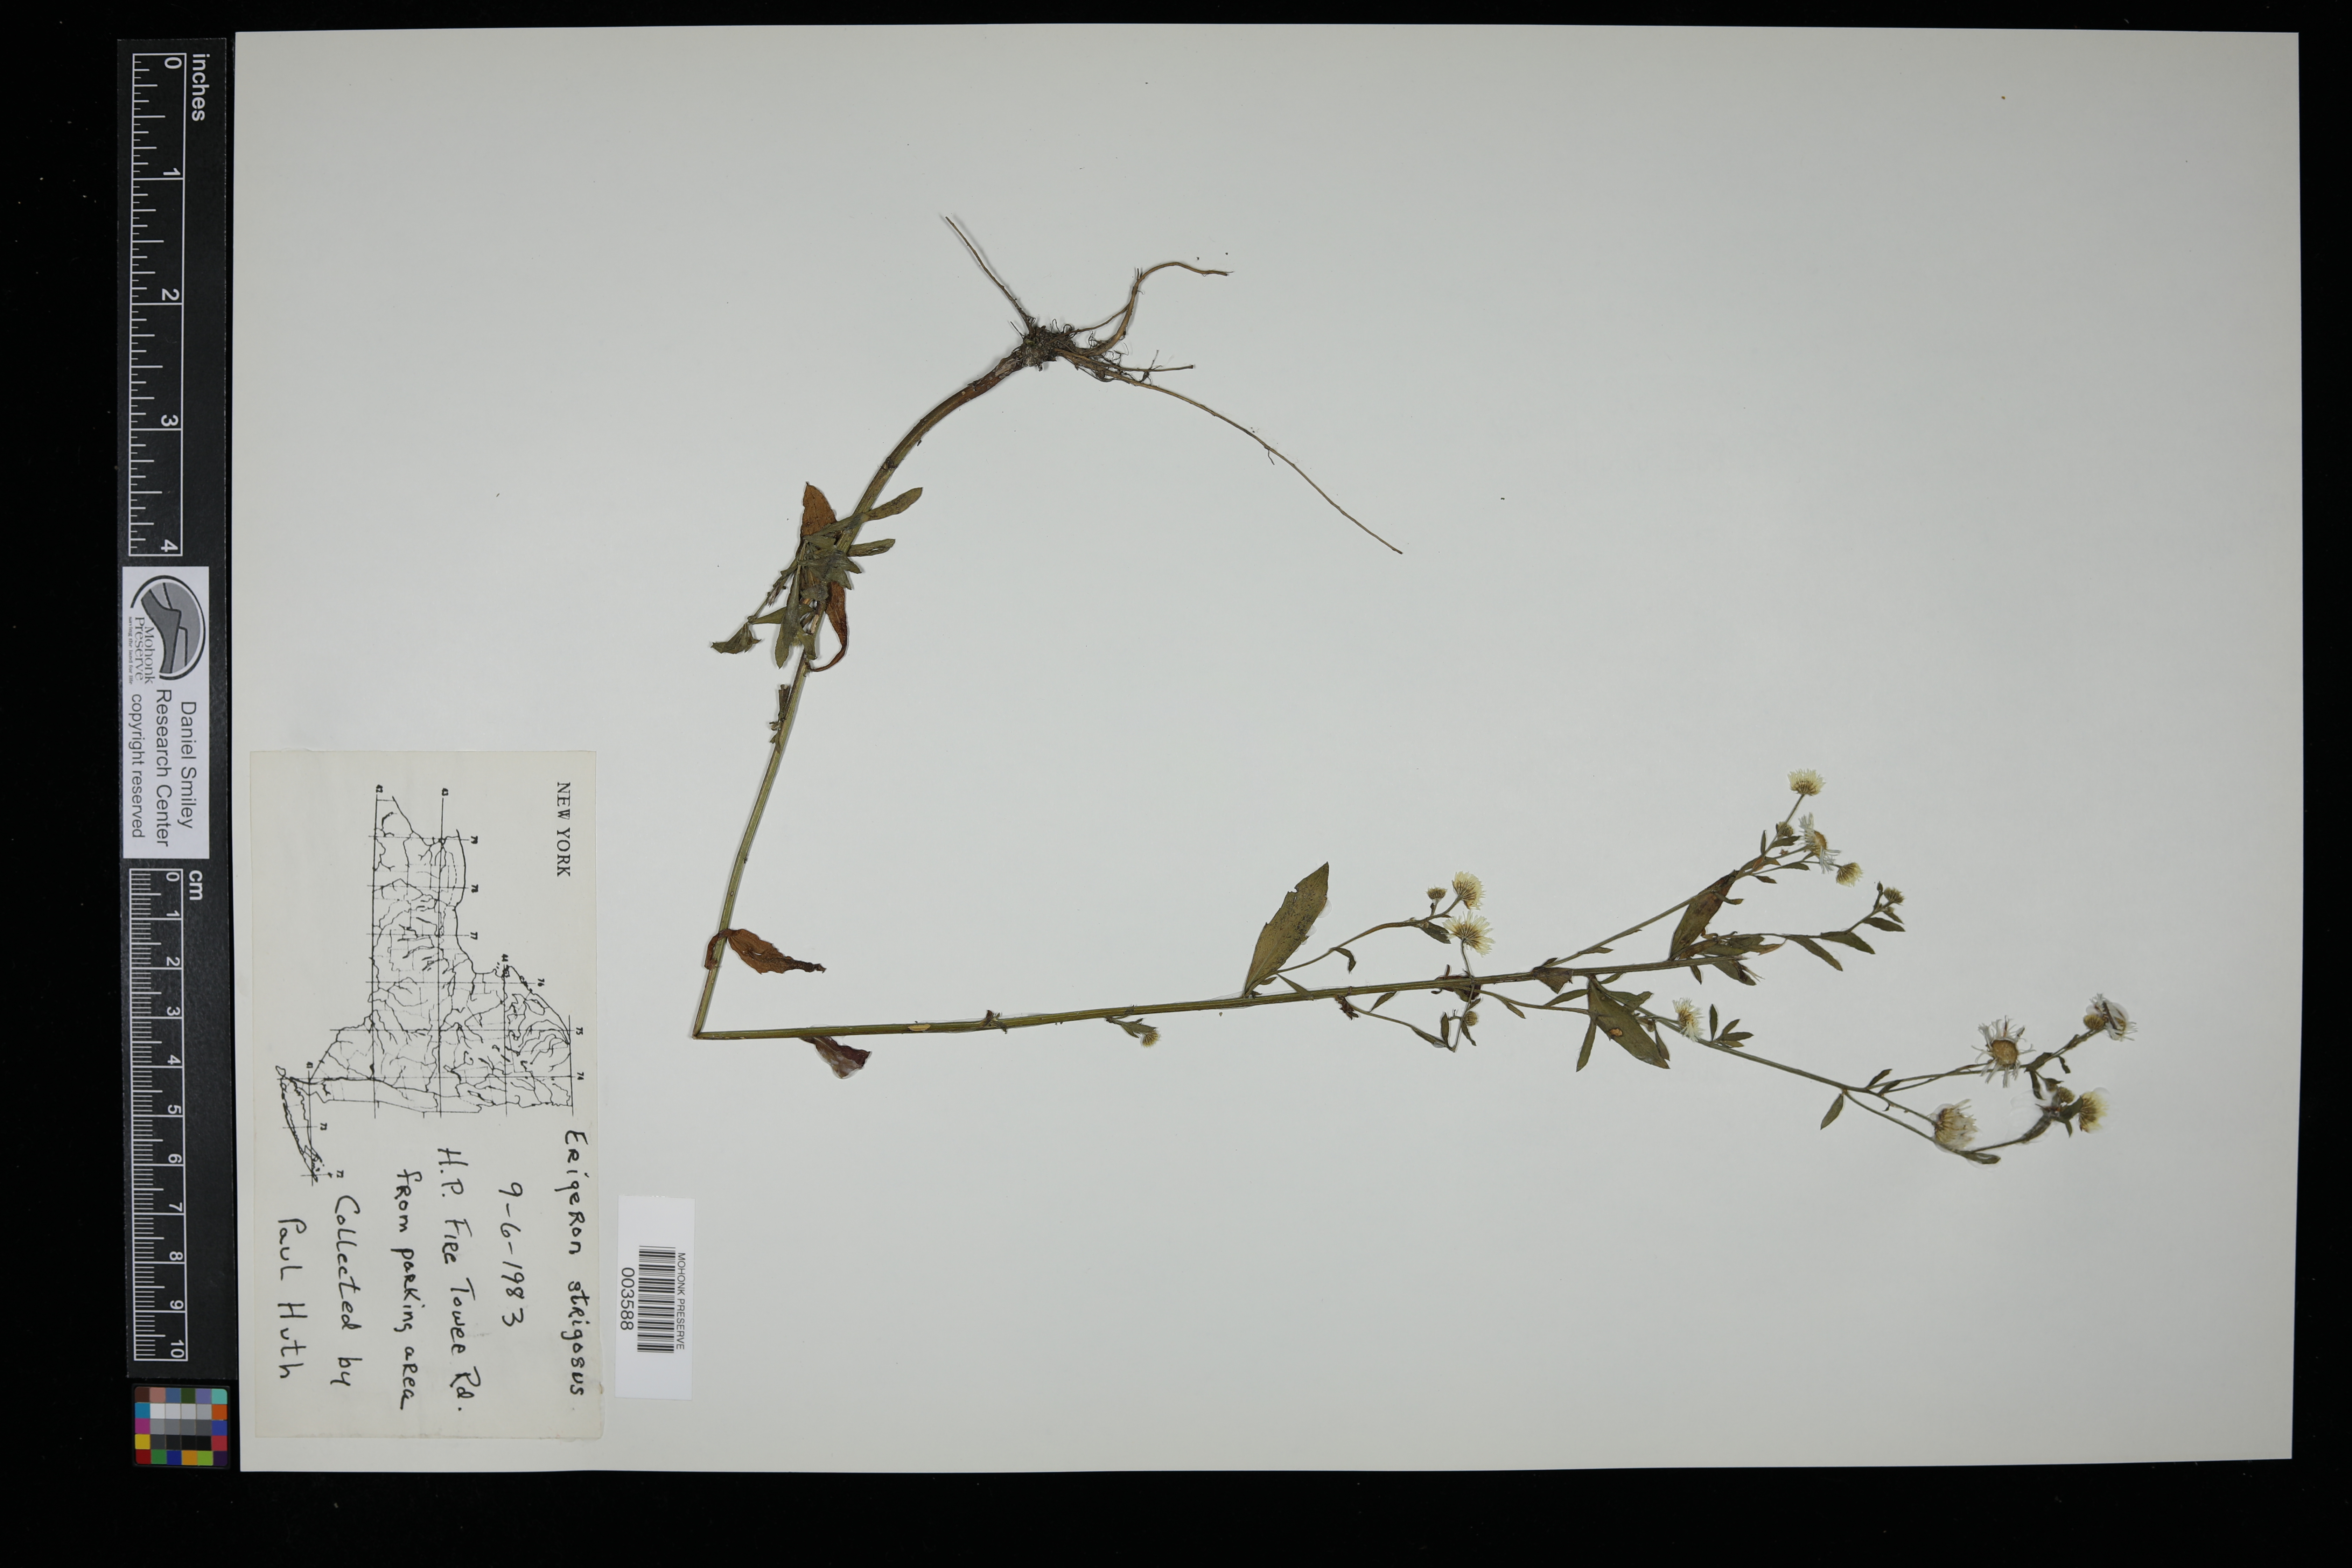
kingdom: Plantae
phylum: Tracheophyta
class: Magnoliopsida
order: Asterales
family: Asteraceae
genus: Erigeron
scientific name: Erigeron strigosus
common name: Common eastern fleabane
